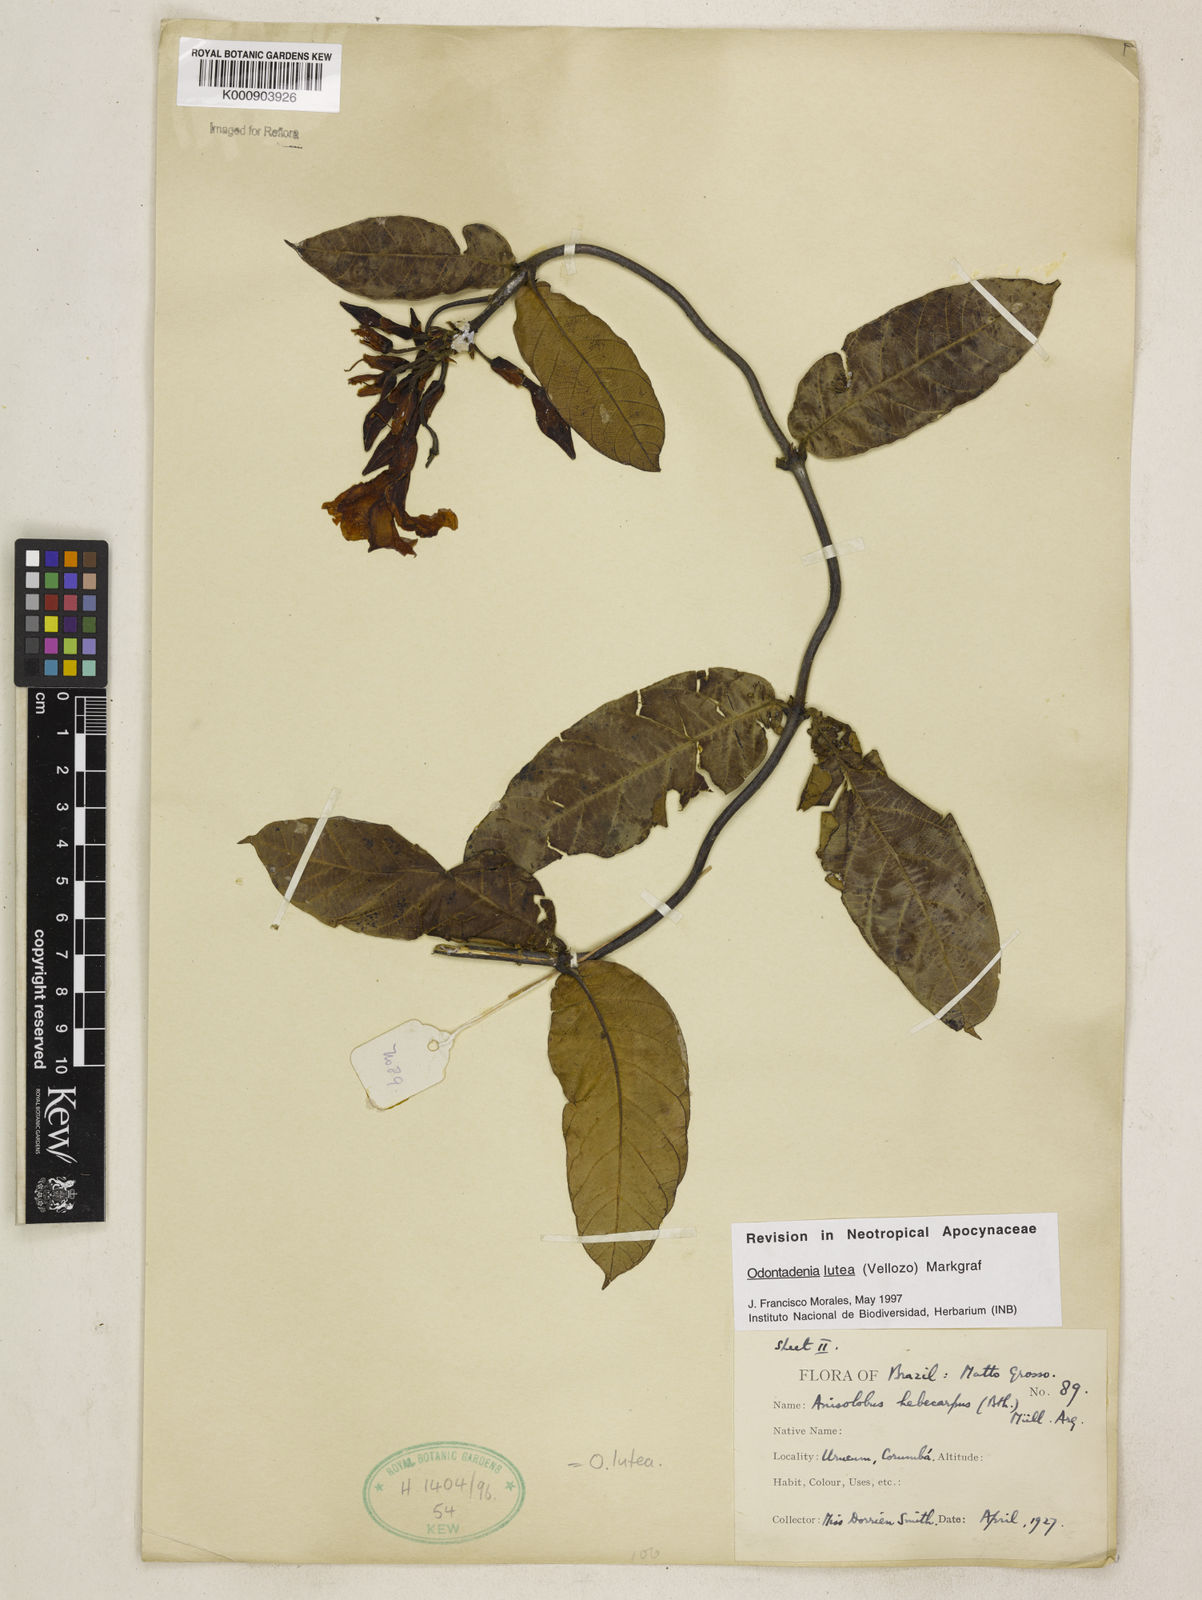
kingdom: Plantae
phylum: Tracheophyta
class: Magnoliopsida
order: Gentianales
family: Apocynaceae
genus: Odontadenia
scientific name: Odontadenia lutea
